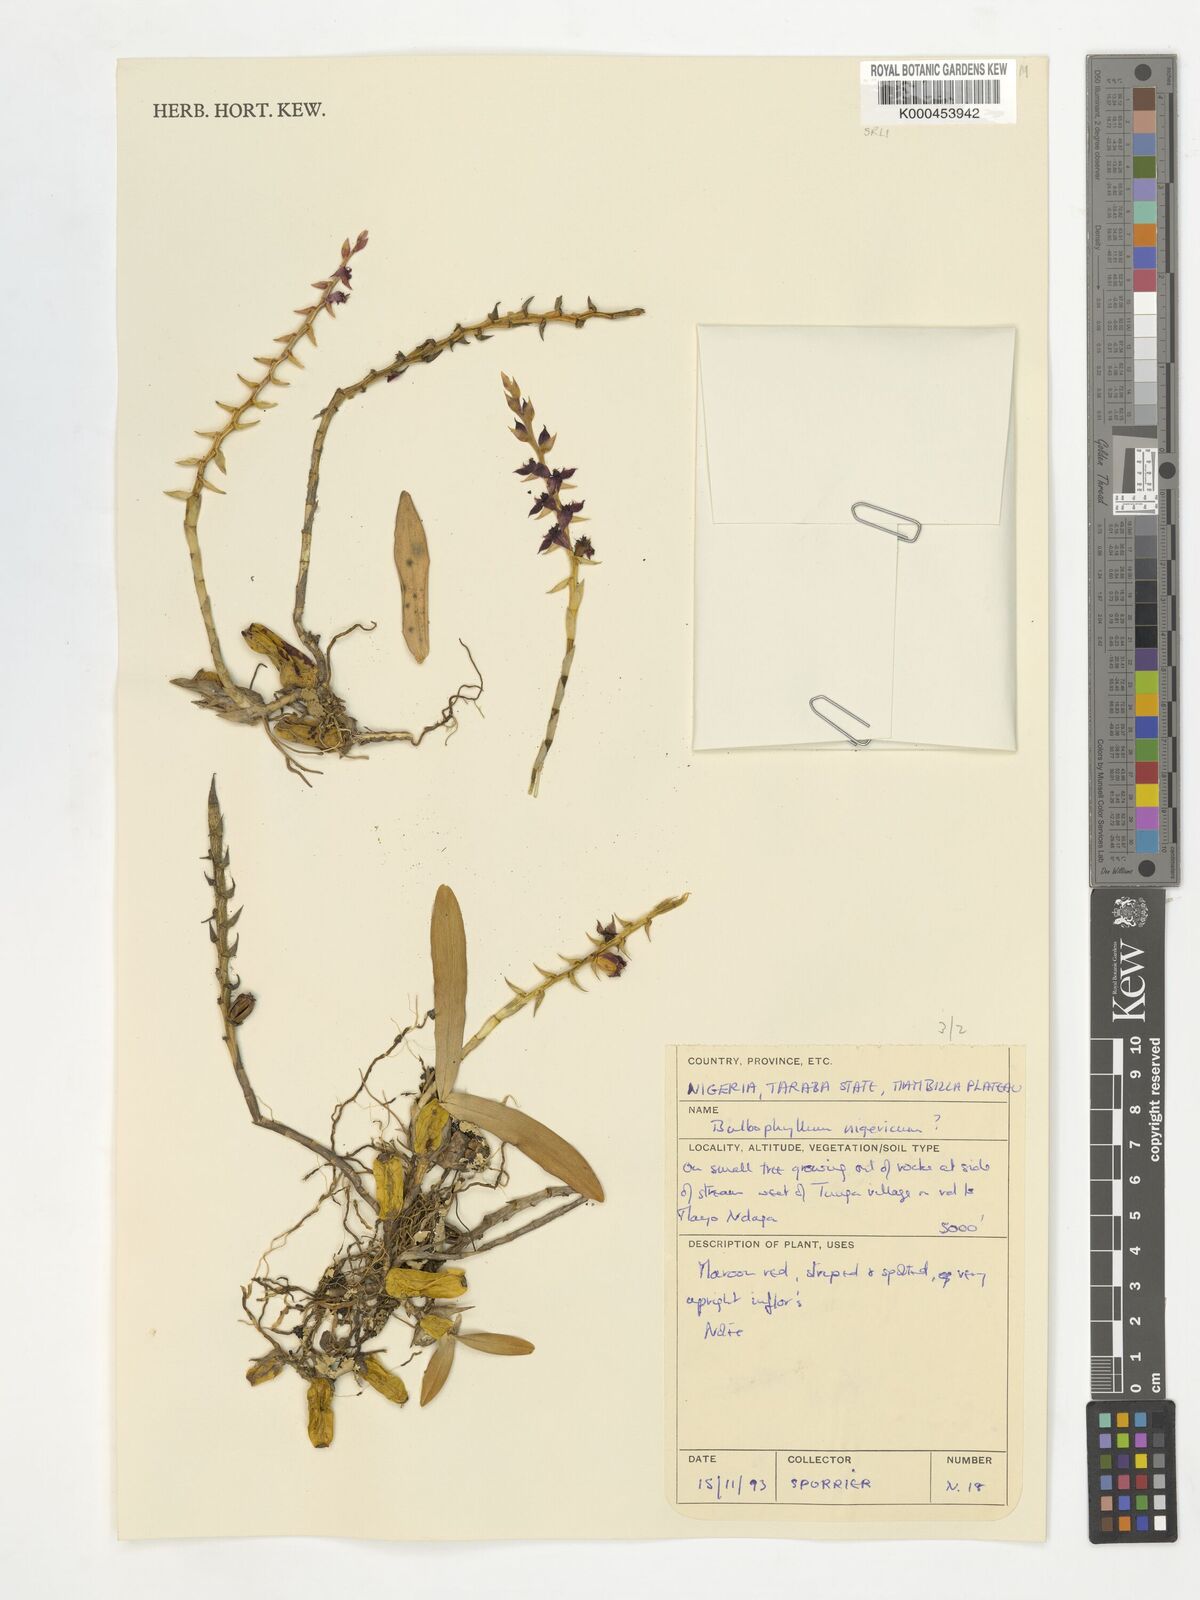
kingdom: Plantae
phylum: Tracheophyta
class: Liliopsida
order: Asparagales
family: Orchidaceae
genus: Bulbophyllum
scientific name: Bulbophyllum nigericum
